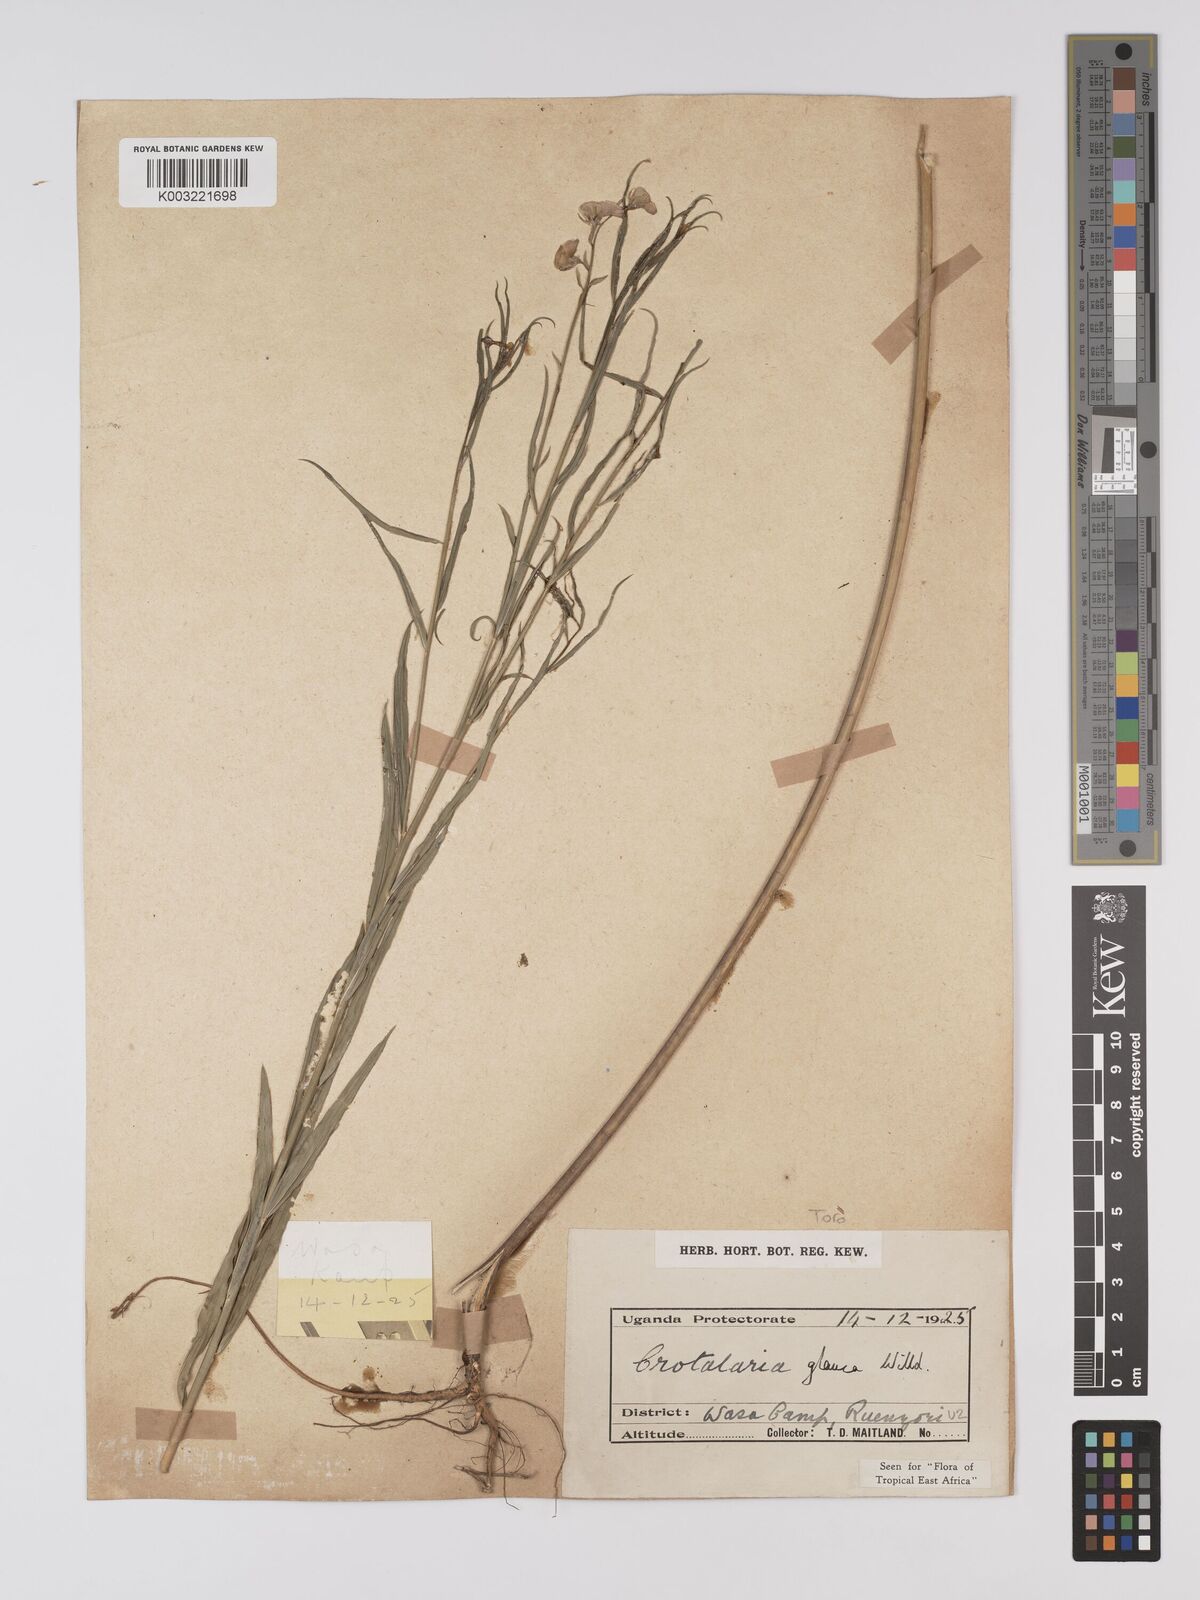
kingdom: Plantae
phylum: Tracheophyta
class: Magnoliopsida
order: Fabales
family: Fabaceae
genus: Crotalaria
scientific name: Crotalaria glauca
